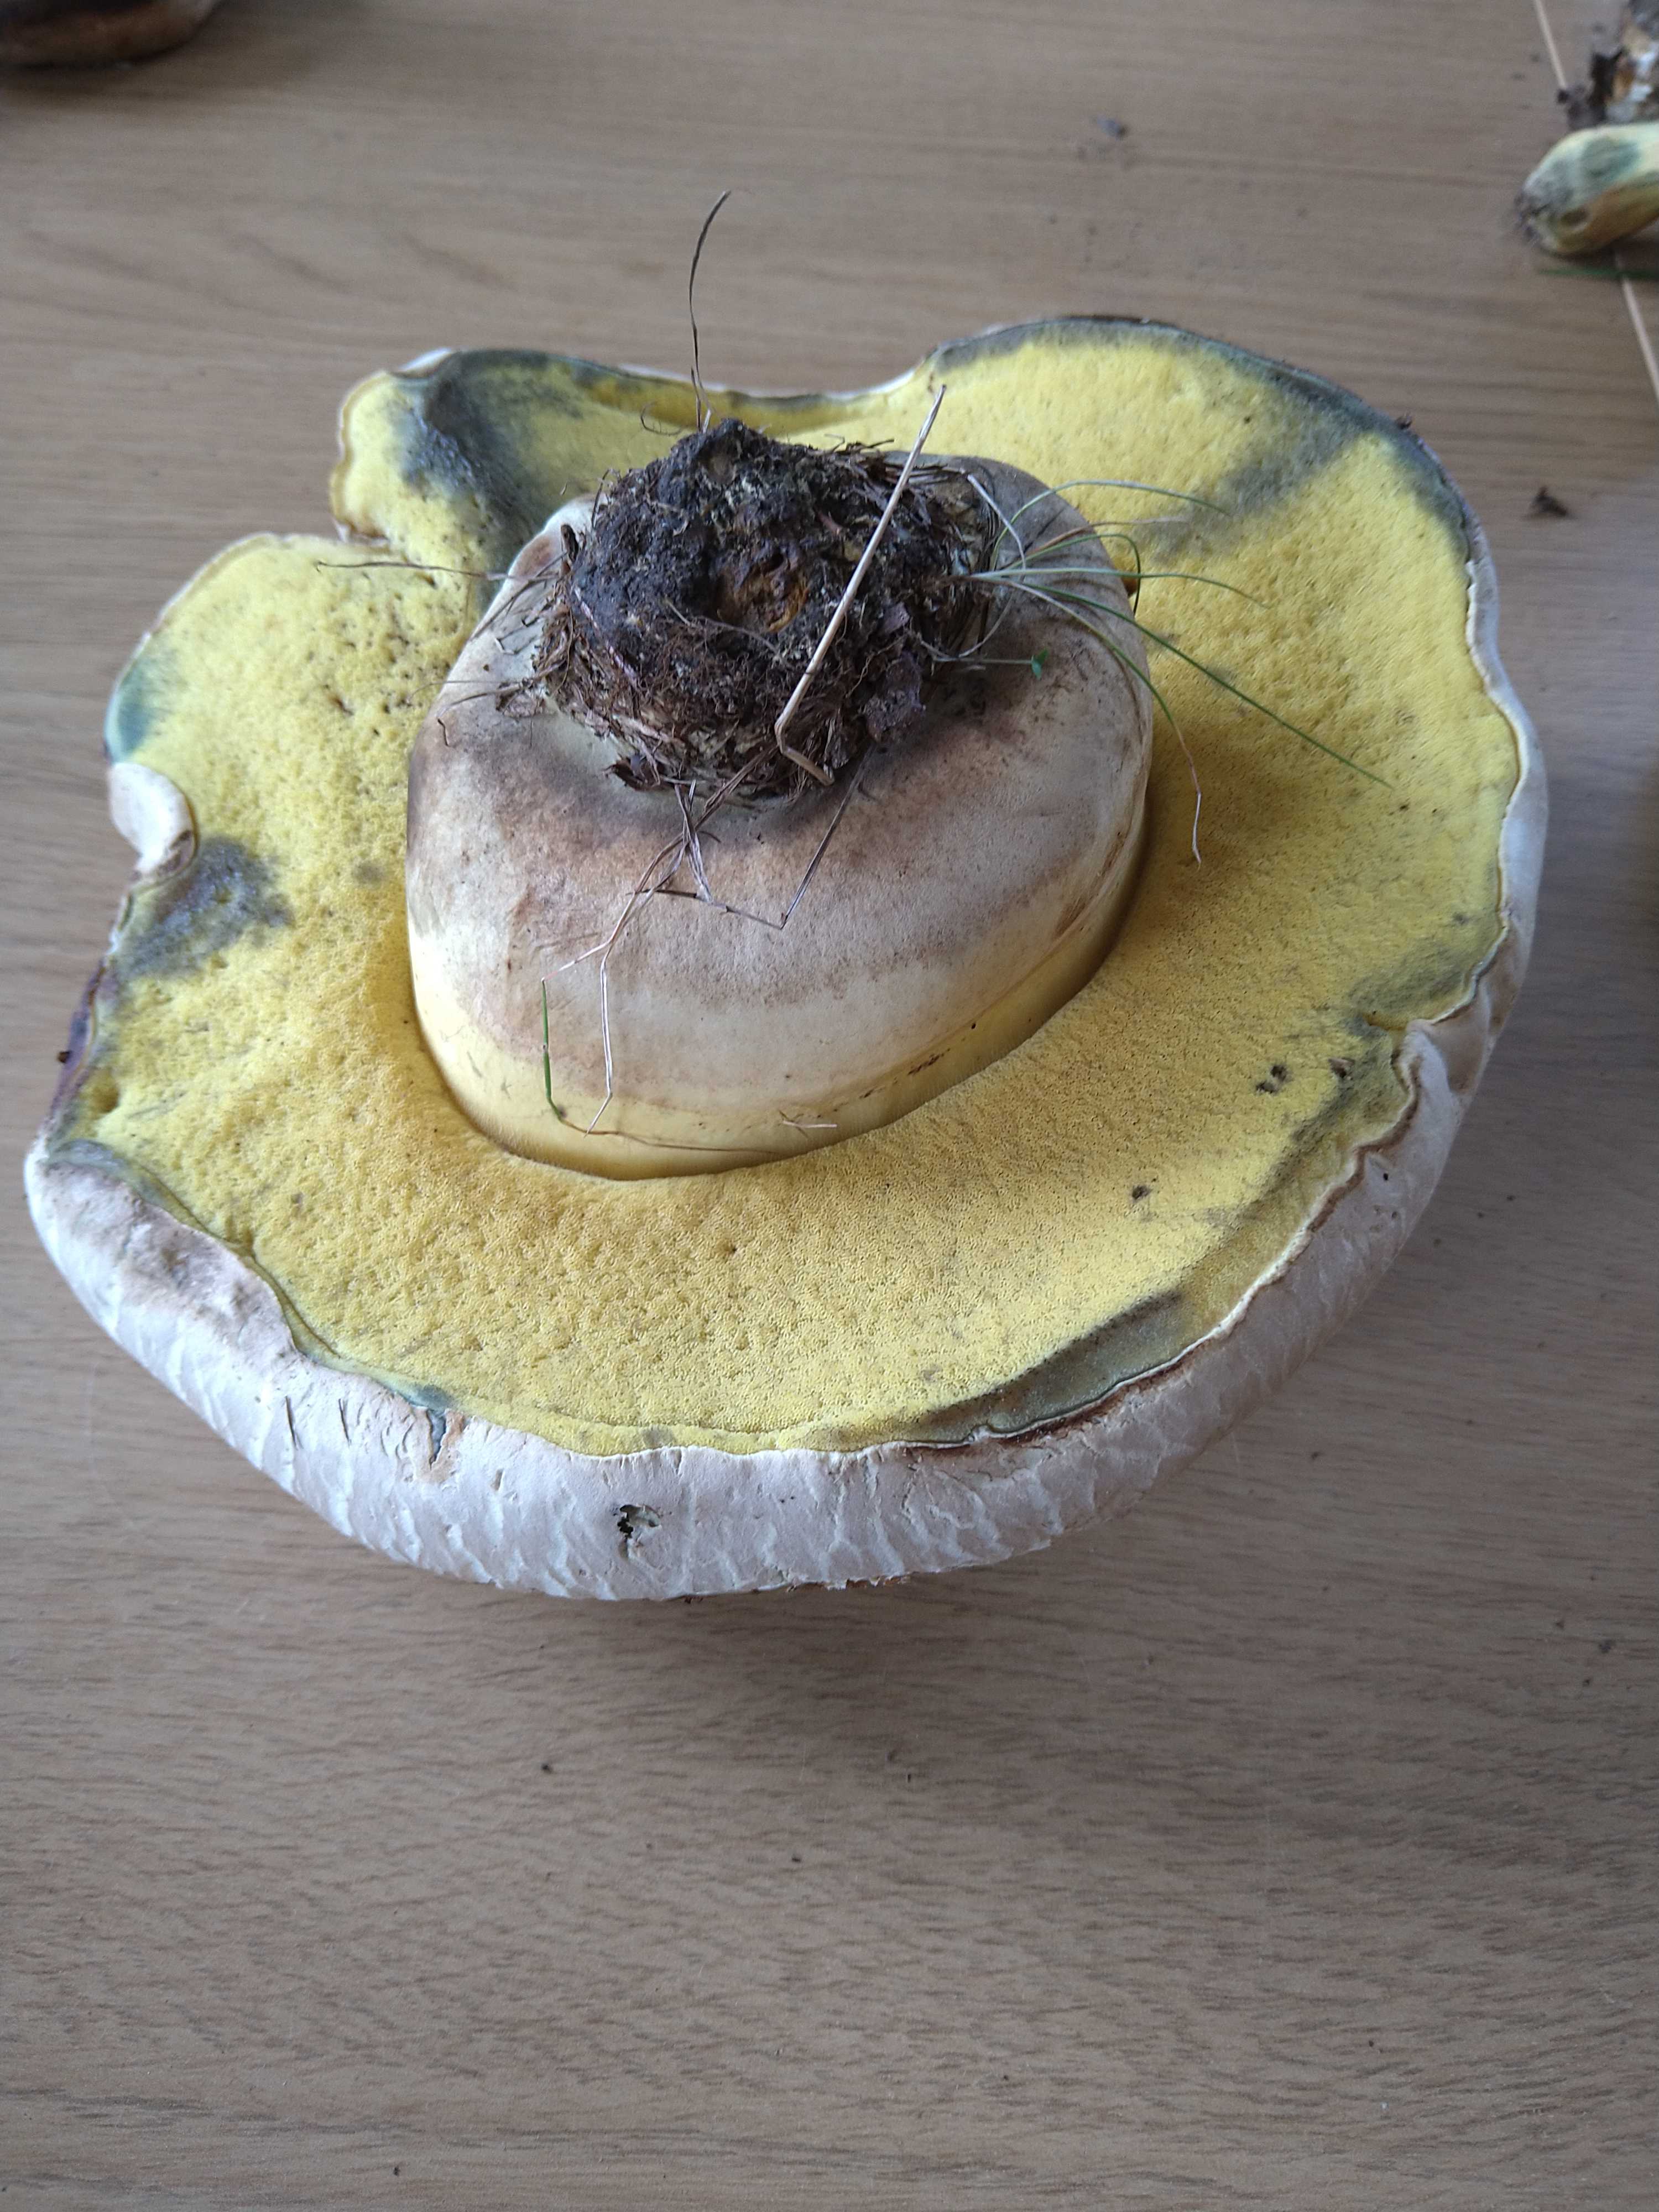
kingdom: Fungi
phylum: Basidiomycota
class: Agaricomycetes
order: Boletales
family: Boletaceae
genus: Caloboletus
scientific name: Caloboletus radicans
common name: rod-rørhat
